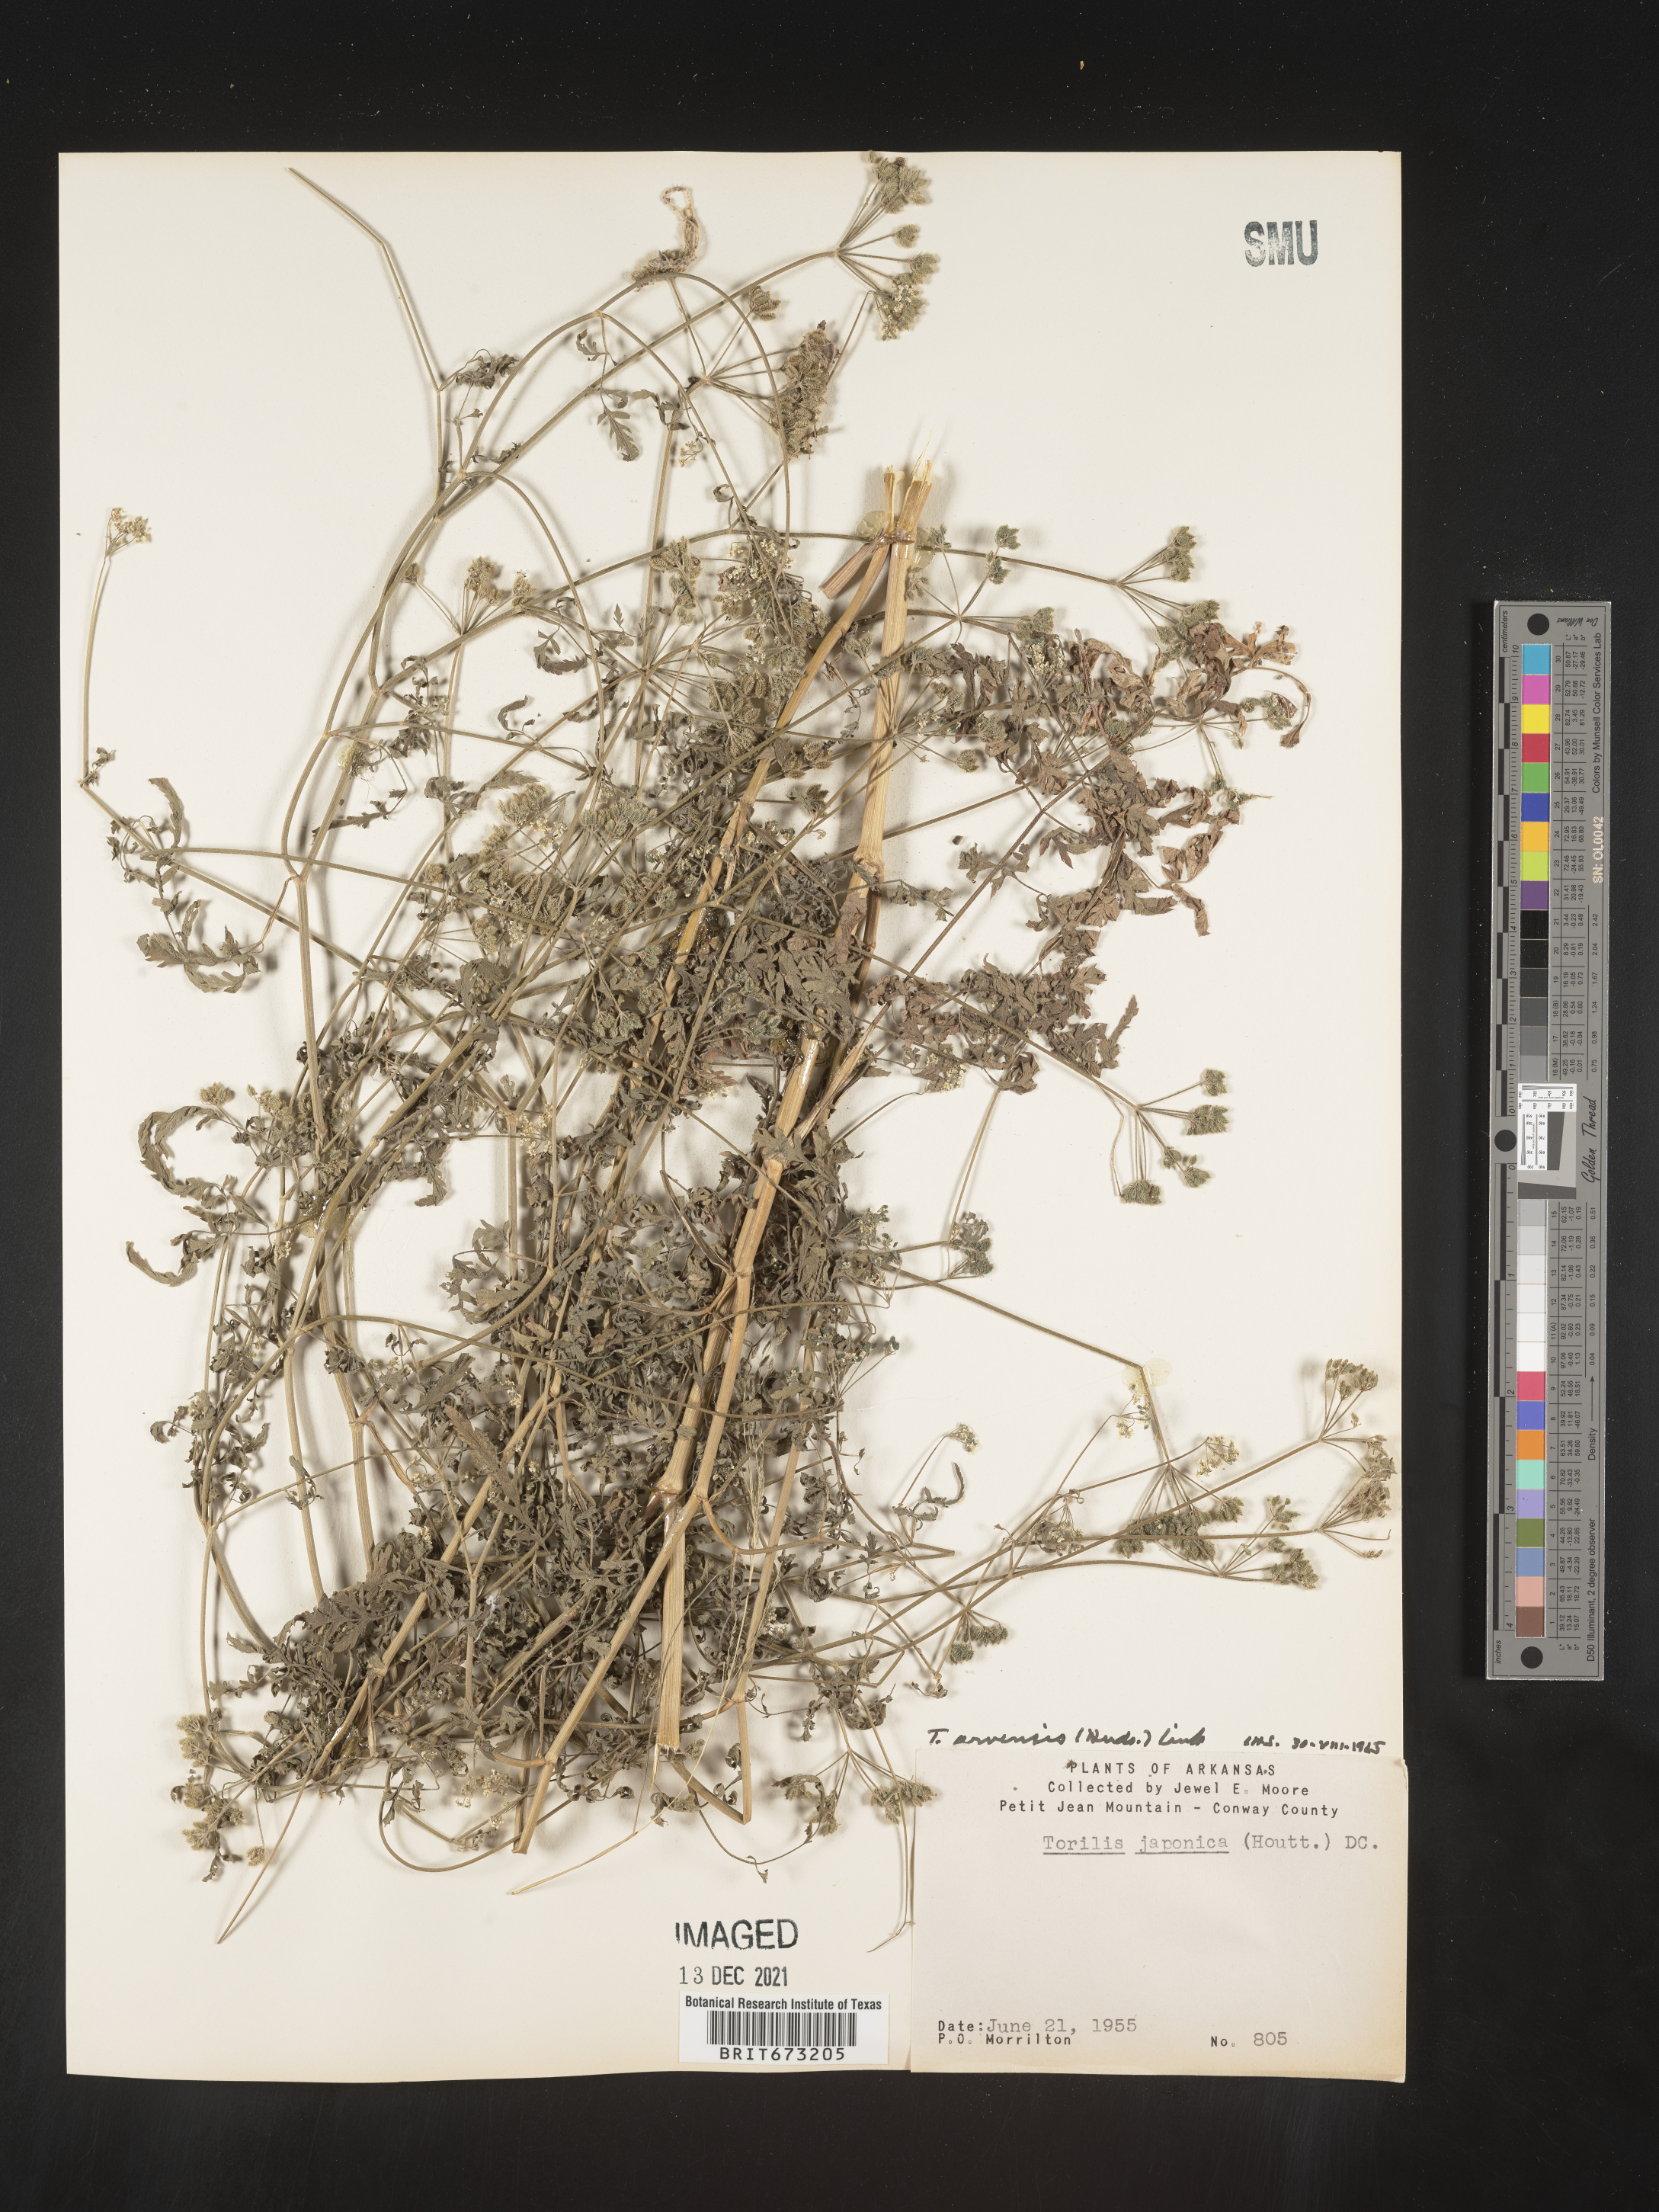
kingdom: Plantae
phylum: Tracheophyta
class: Magnoliopsida
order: Apiales
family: Apiaceae
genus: Torilis
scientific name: Torilis arvensis
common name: Spreading hedge-parsley
